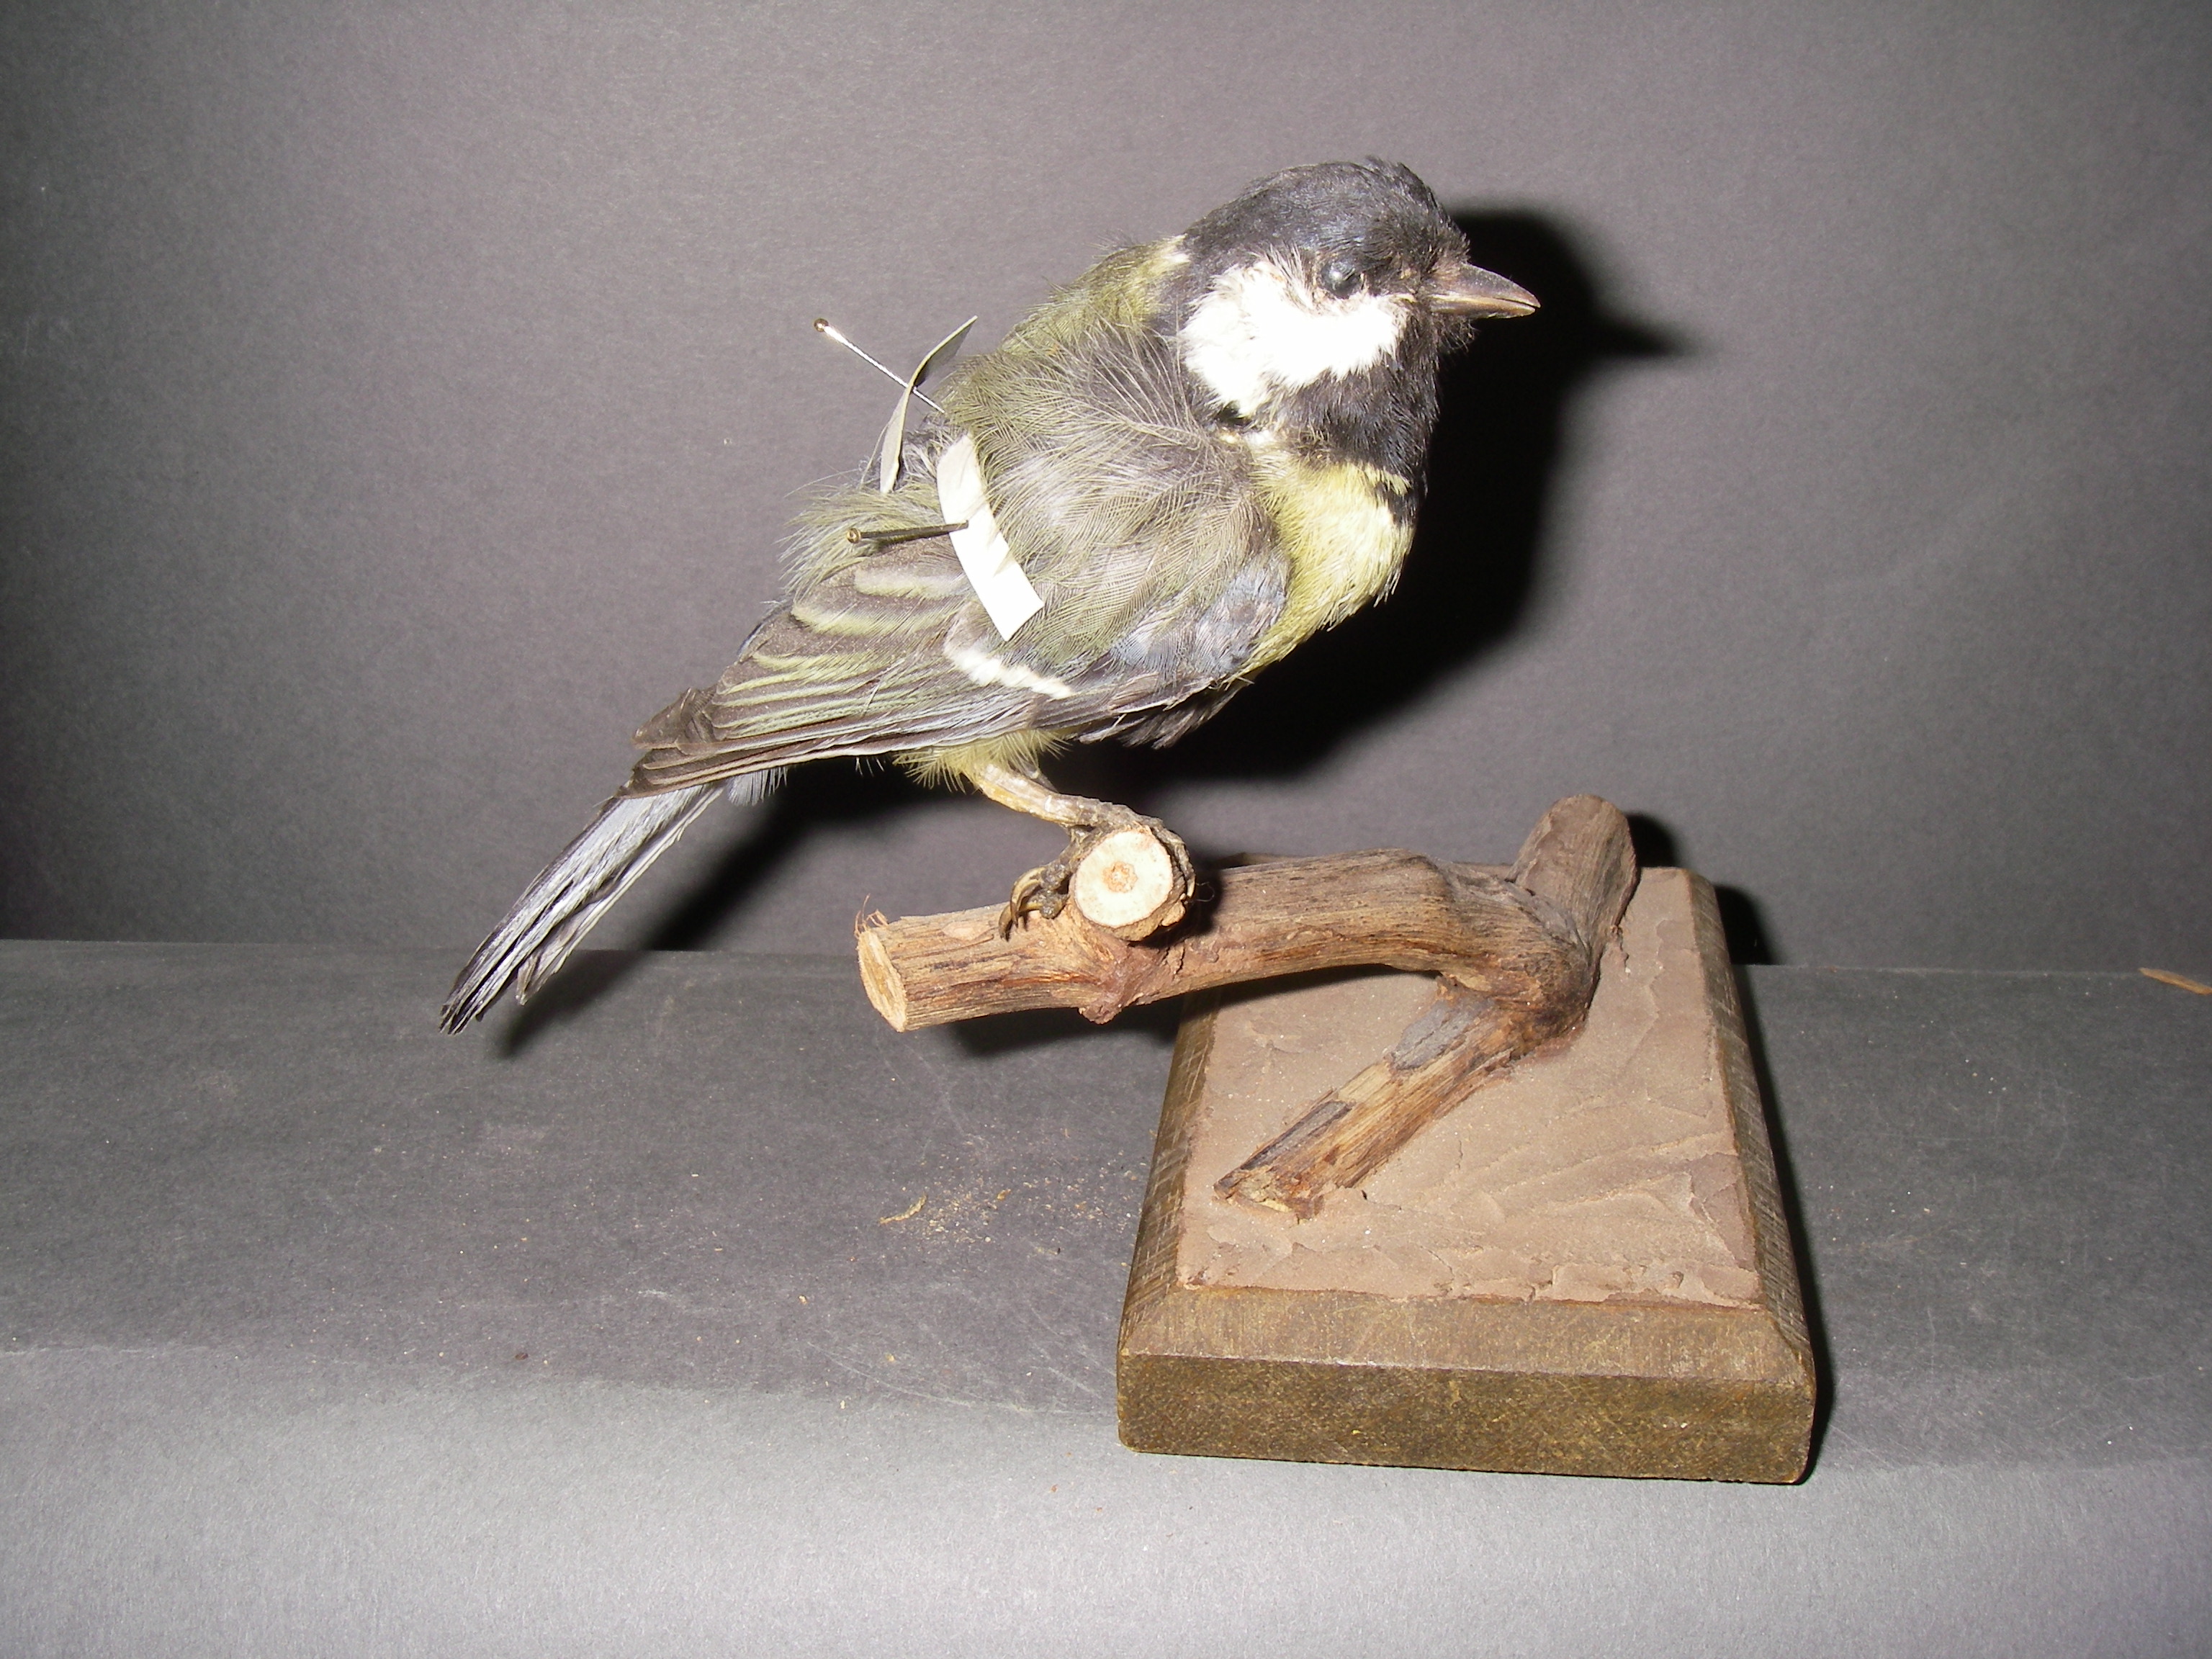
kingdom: Animalia
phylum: Chordata
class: Aves
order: Passeriformes
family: Paridae
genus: Parus
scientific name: Parus major
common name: Great tit
